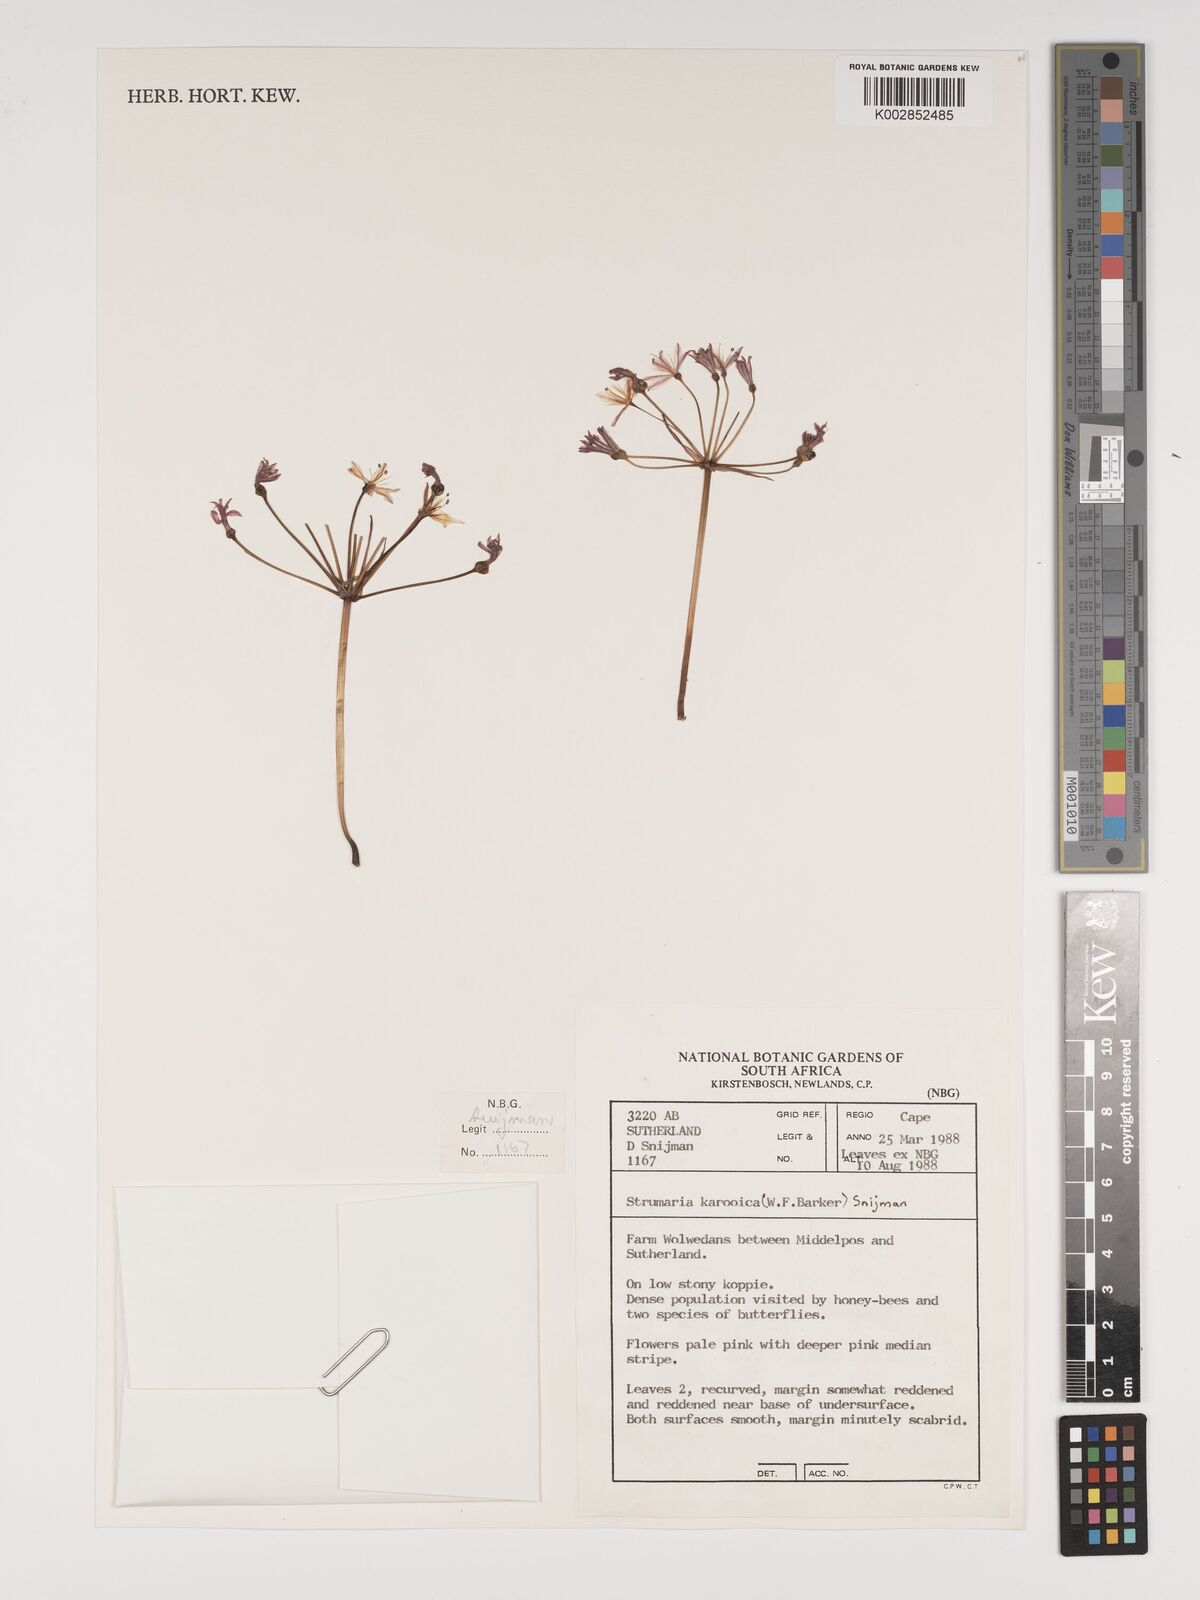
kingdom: Plantae
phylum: Tracheophyta
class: Liliopsida
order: Asparagales
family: Amaryllidaceae
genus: Strumaria
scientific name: Strumaria
